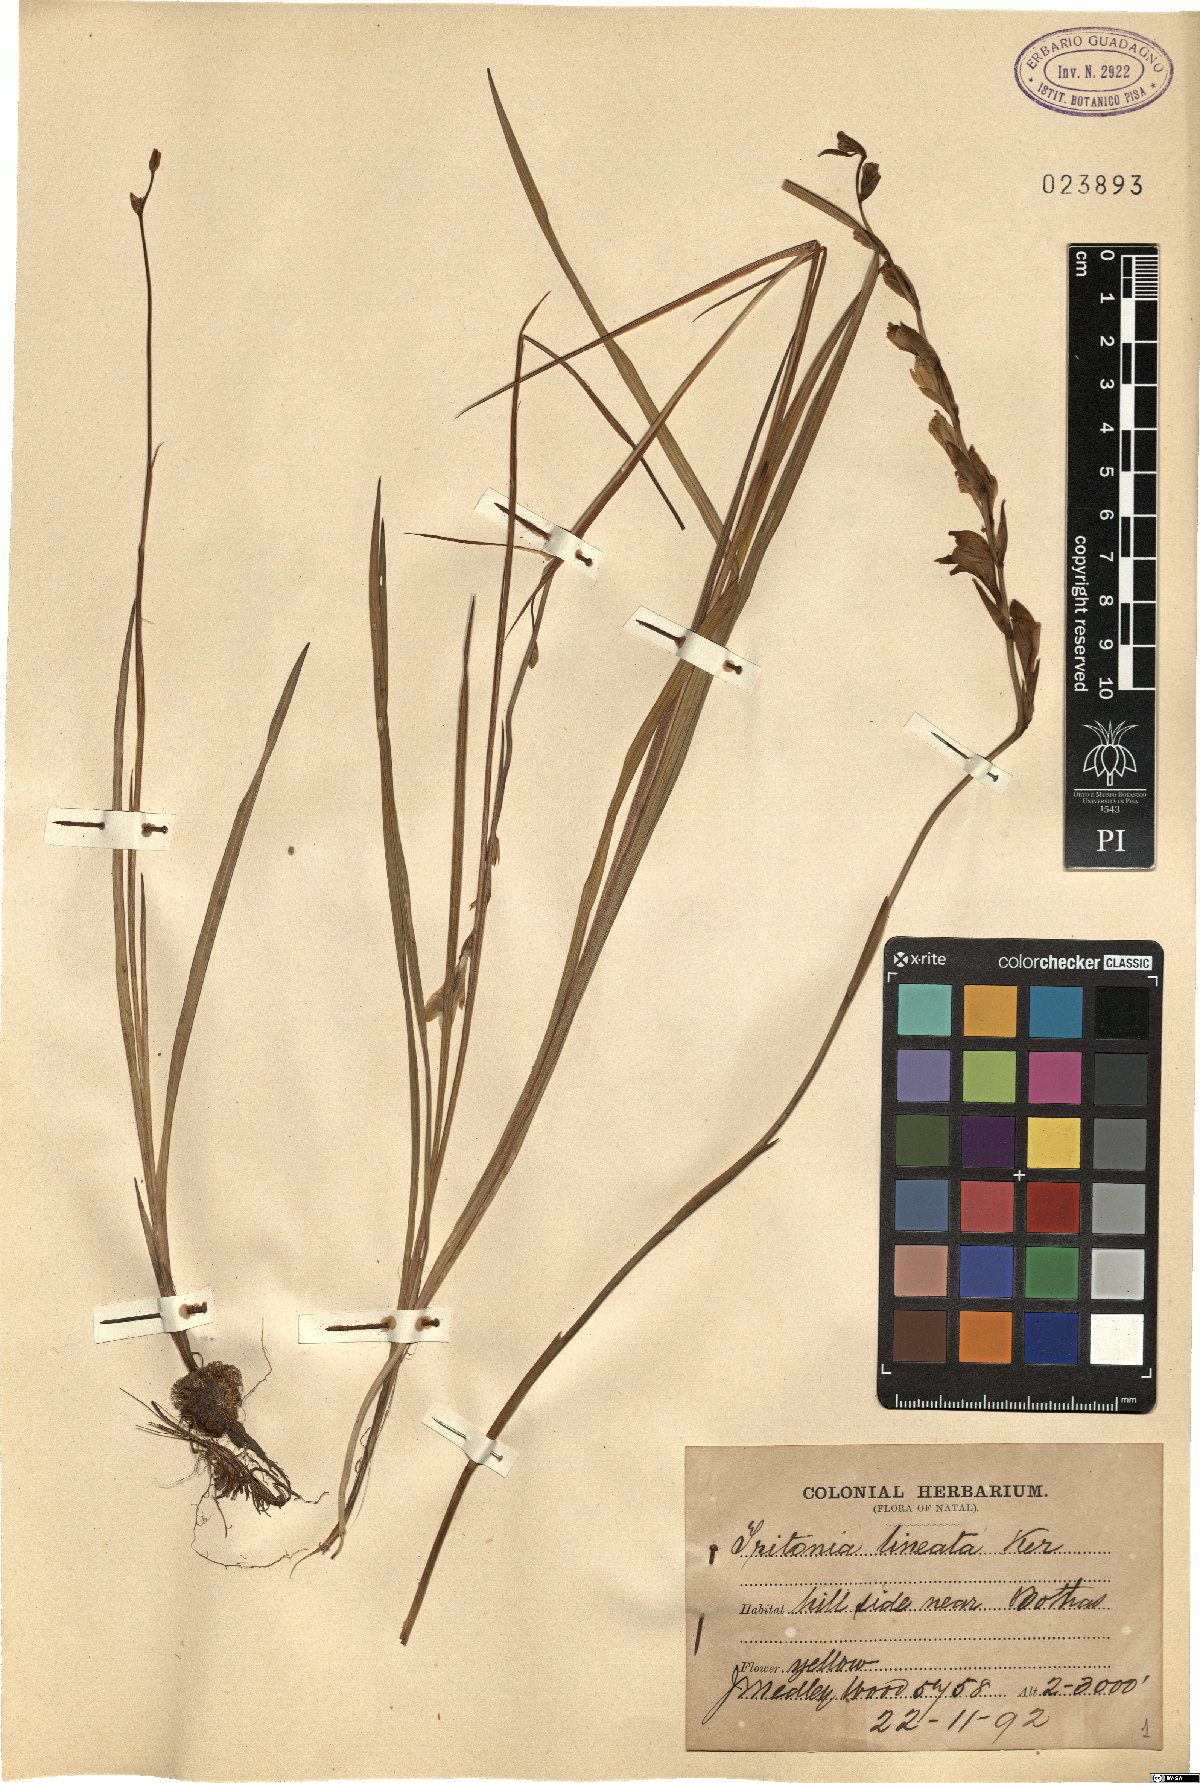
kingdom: Plantae
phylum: Tracheophyta
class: Liliopsida
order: Asparagales
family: Iridaceae
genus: Tritonia
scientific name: Tritonia gladiolaris
